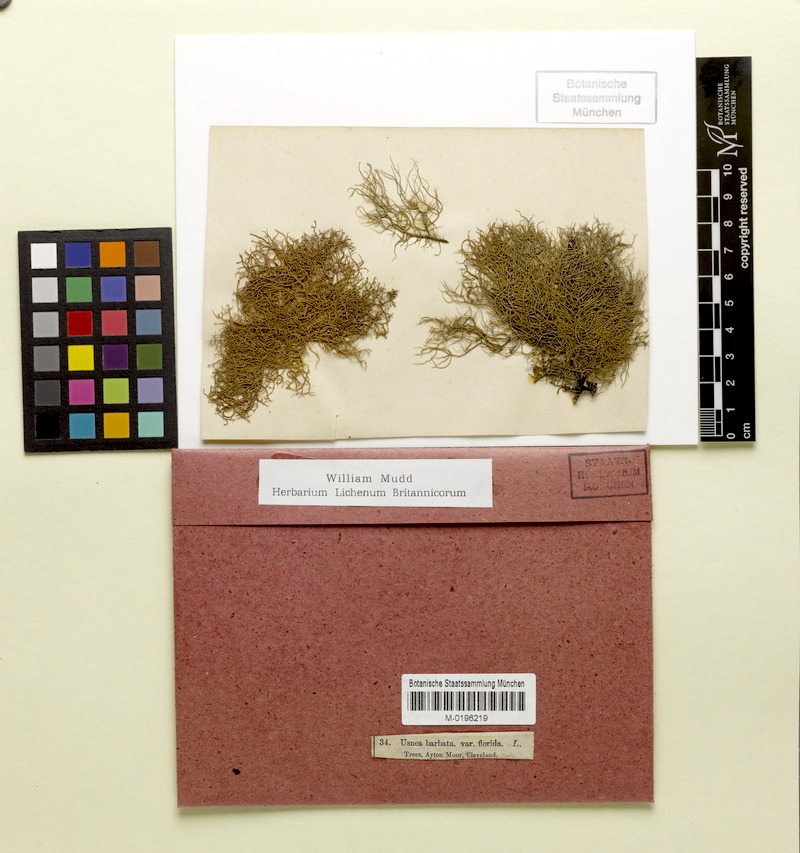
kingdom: Fungi
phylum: Ascomycota
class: Lecanoromycetes
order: Lecanorales
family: Parmeliaceae
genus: Usnea
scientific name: Usnea hirta
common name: Bristly beard lichen
